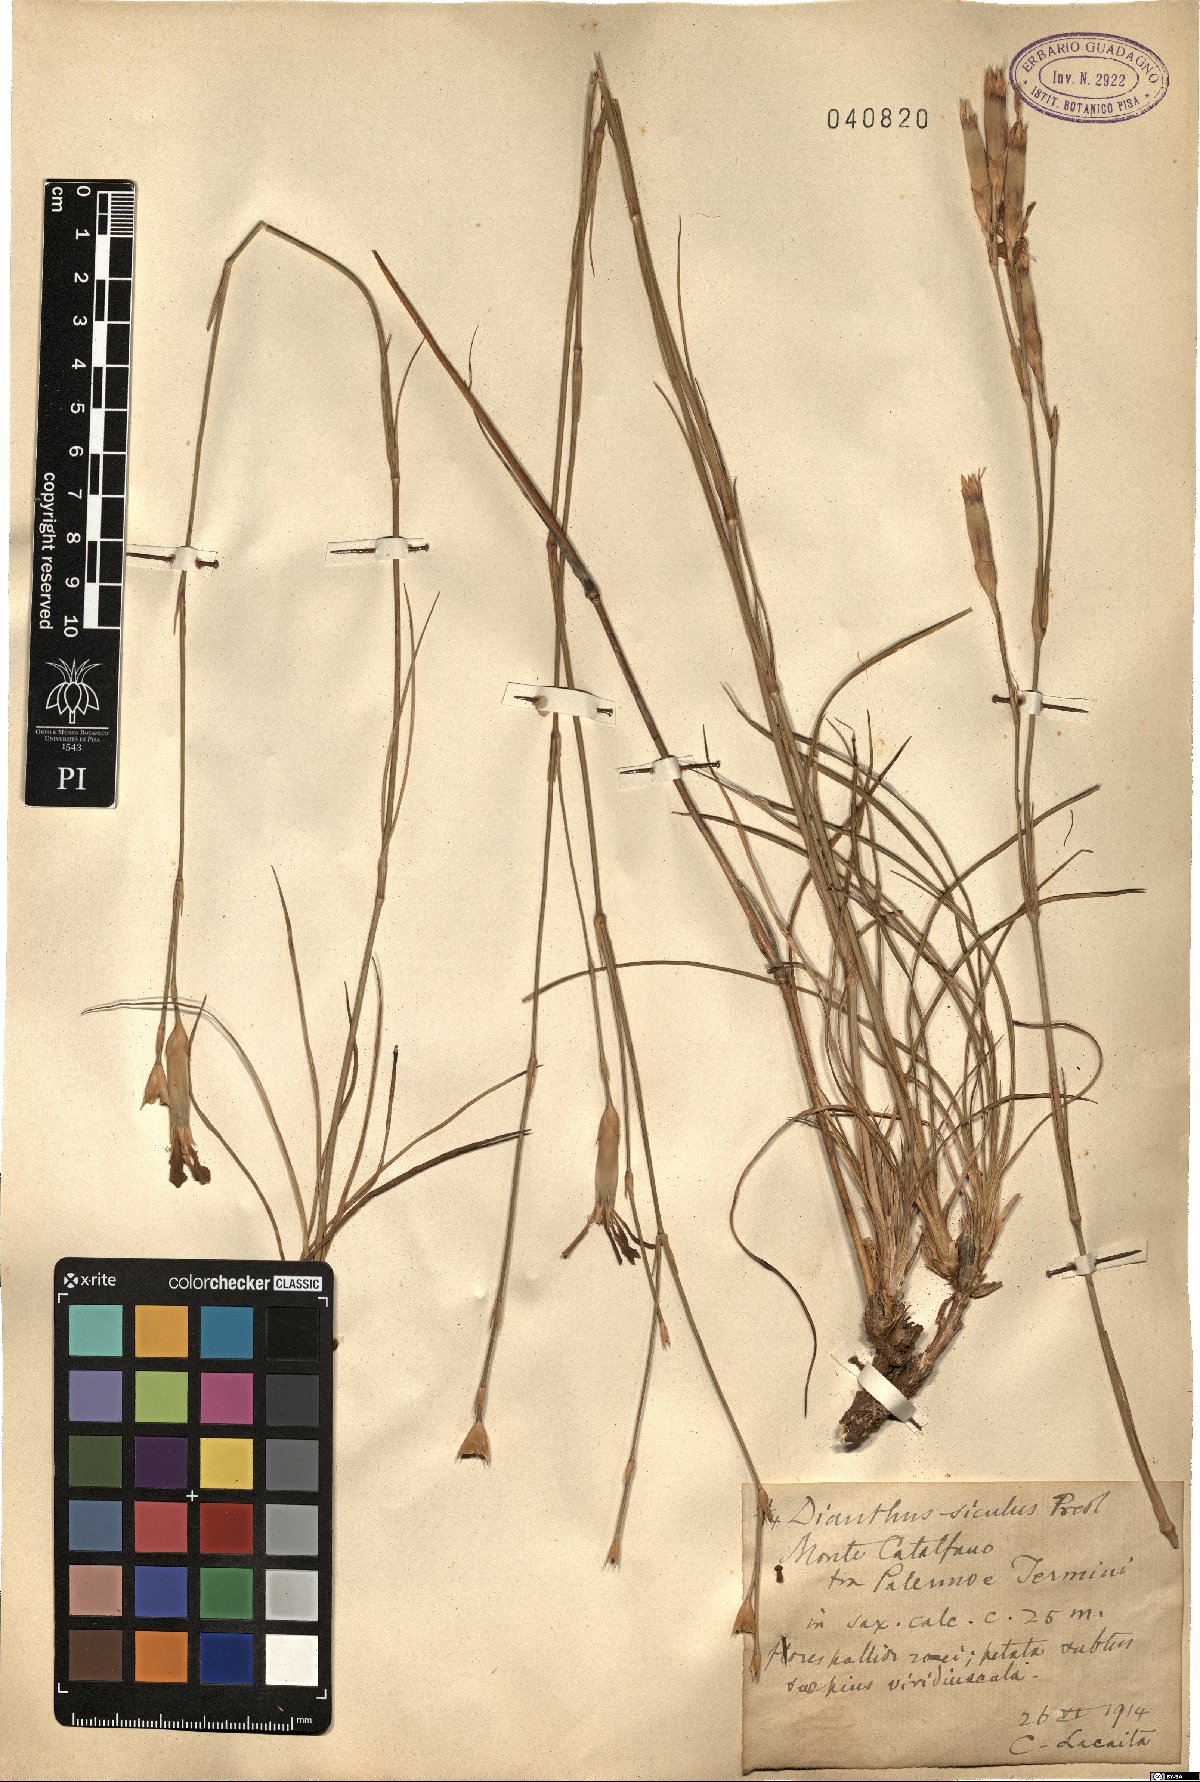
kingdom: Plantae
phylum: Tracheophyta
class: Magnoliopsida
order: Caryophyllales
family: Caryophyllaceae
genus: Dianthus
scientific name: Dianthus siculus
